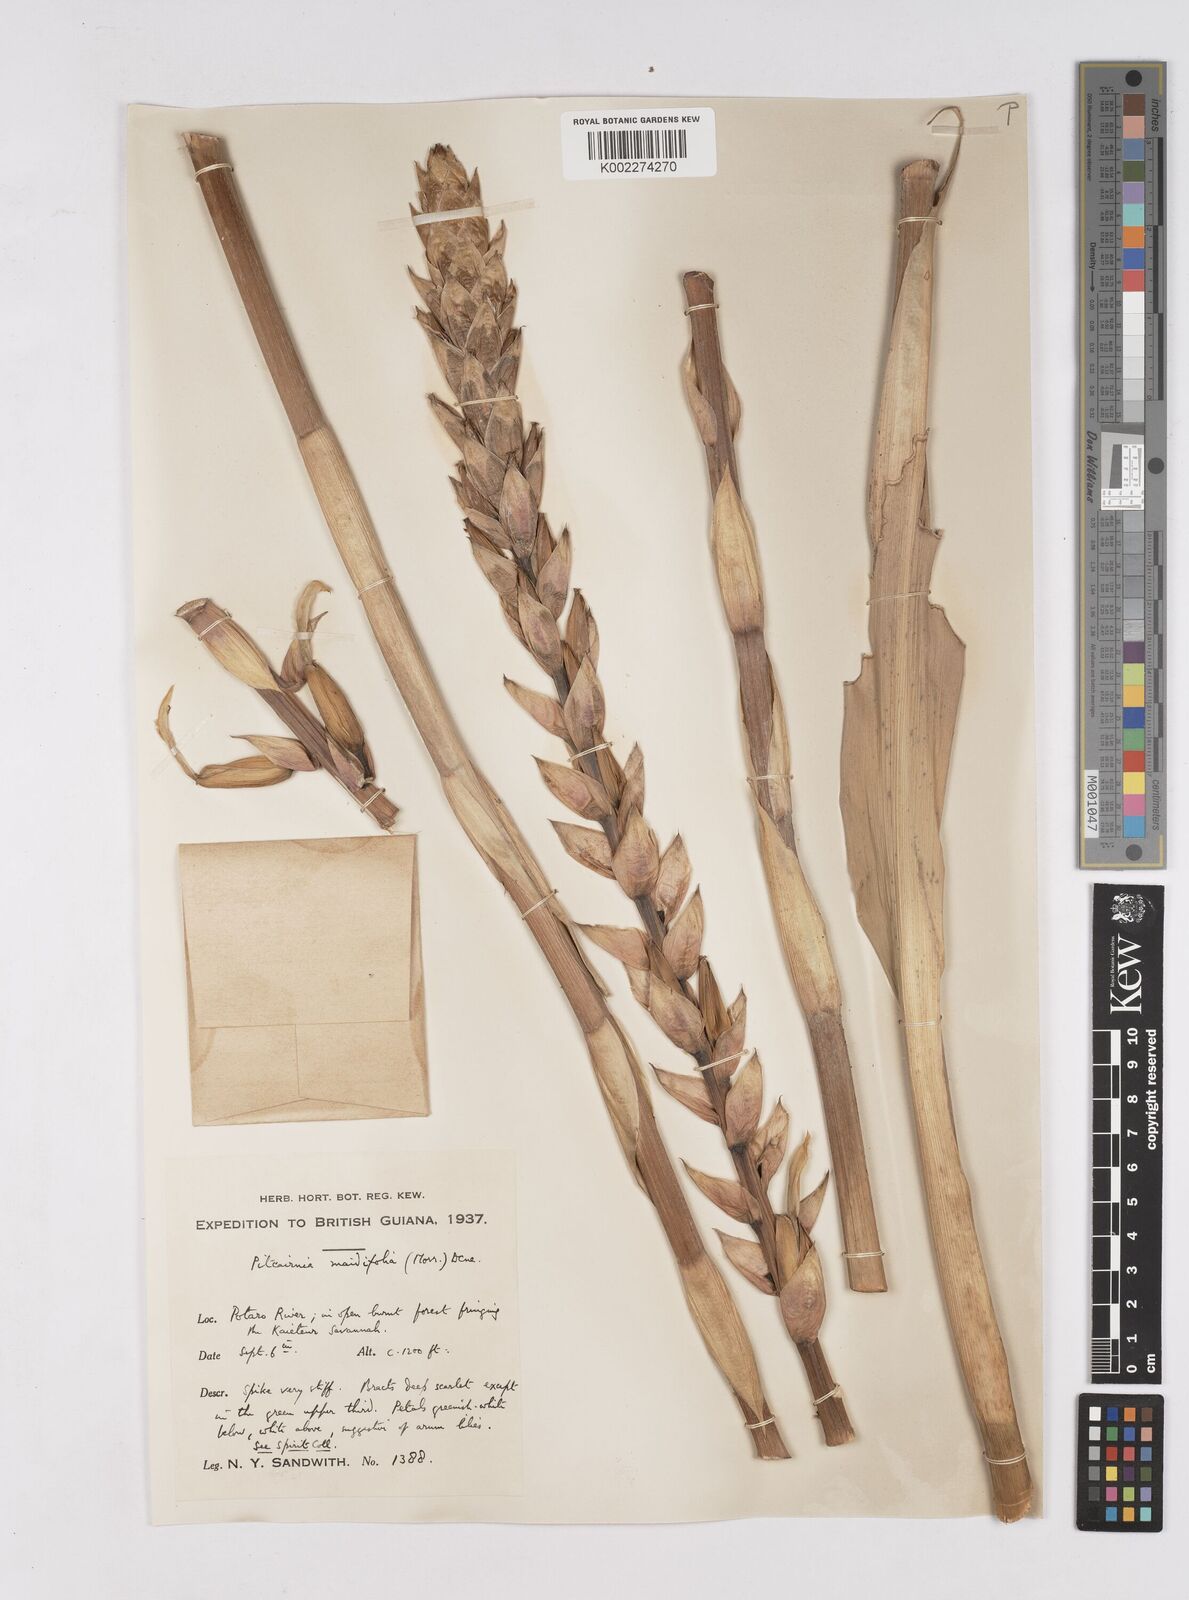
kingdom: Plantae
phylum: Tracheophyta
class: Liliopsida
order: Poales
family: Bromeliaceae
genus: Pitcairnia
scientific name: Pitcairnia maidifolia
